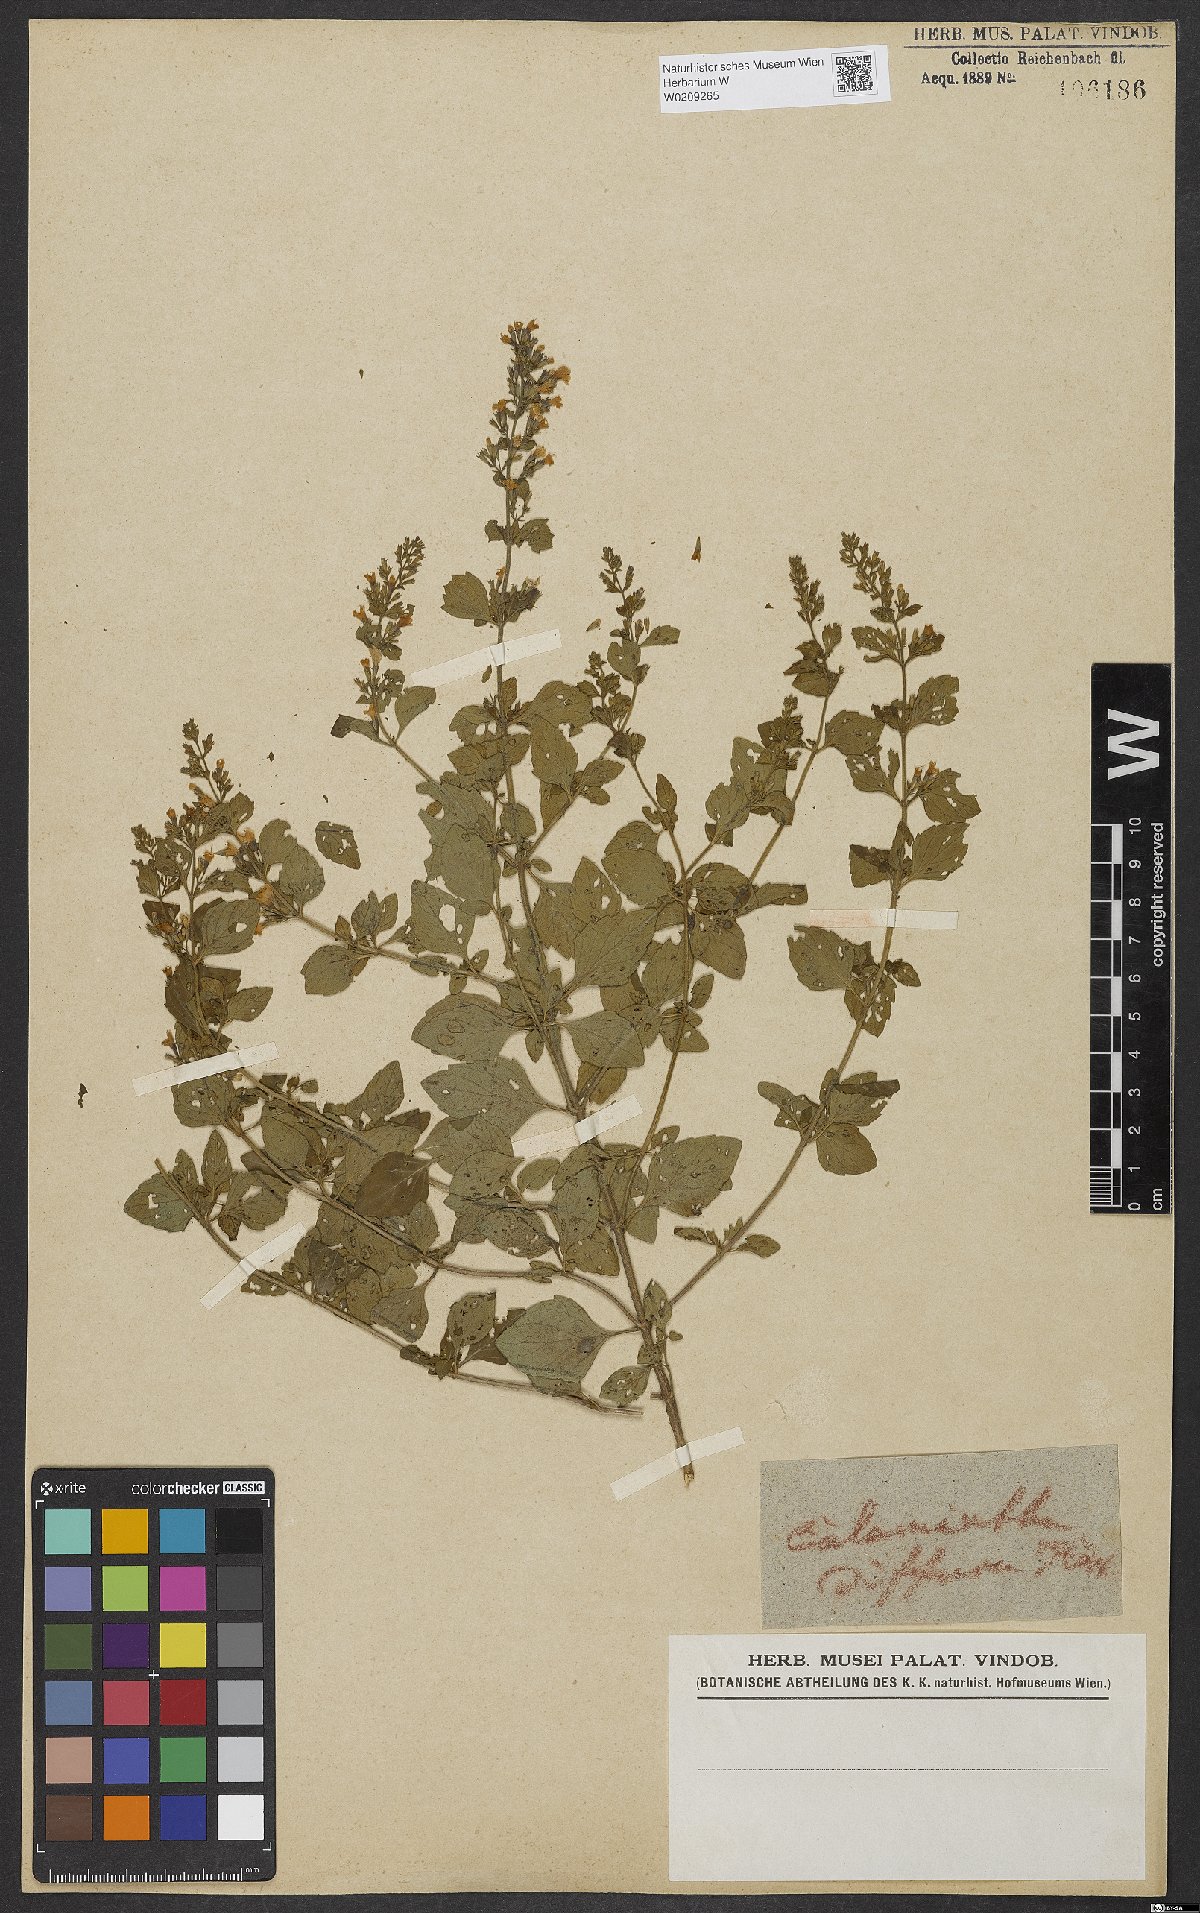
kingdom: Plantae
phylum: Tracheophyta
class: Magnoliopsida
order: Lamiales
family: Lamiaceae
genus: Calamintha
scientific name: Calamintha
